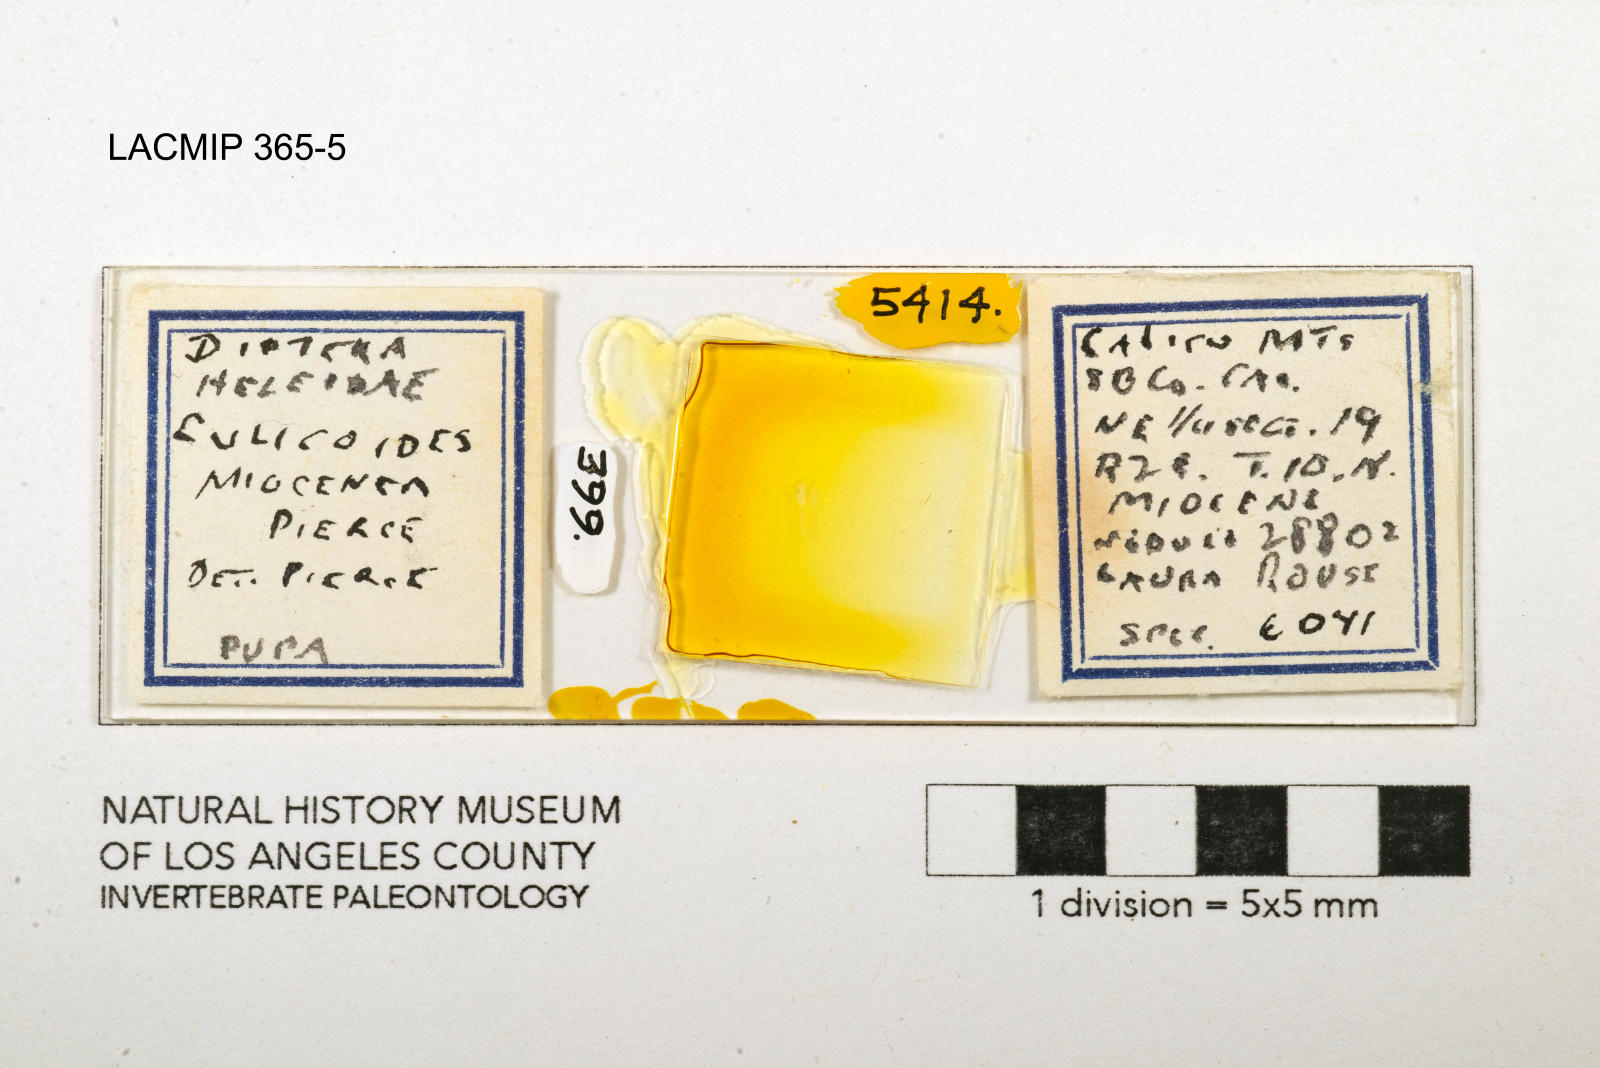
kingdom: Animalia
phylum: Arthropoda
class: Insecta
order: Diptera
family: Ceratopogonidae
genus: Culicoides
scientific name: Culicoides miocenicus
